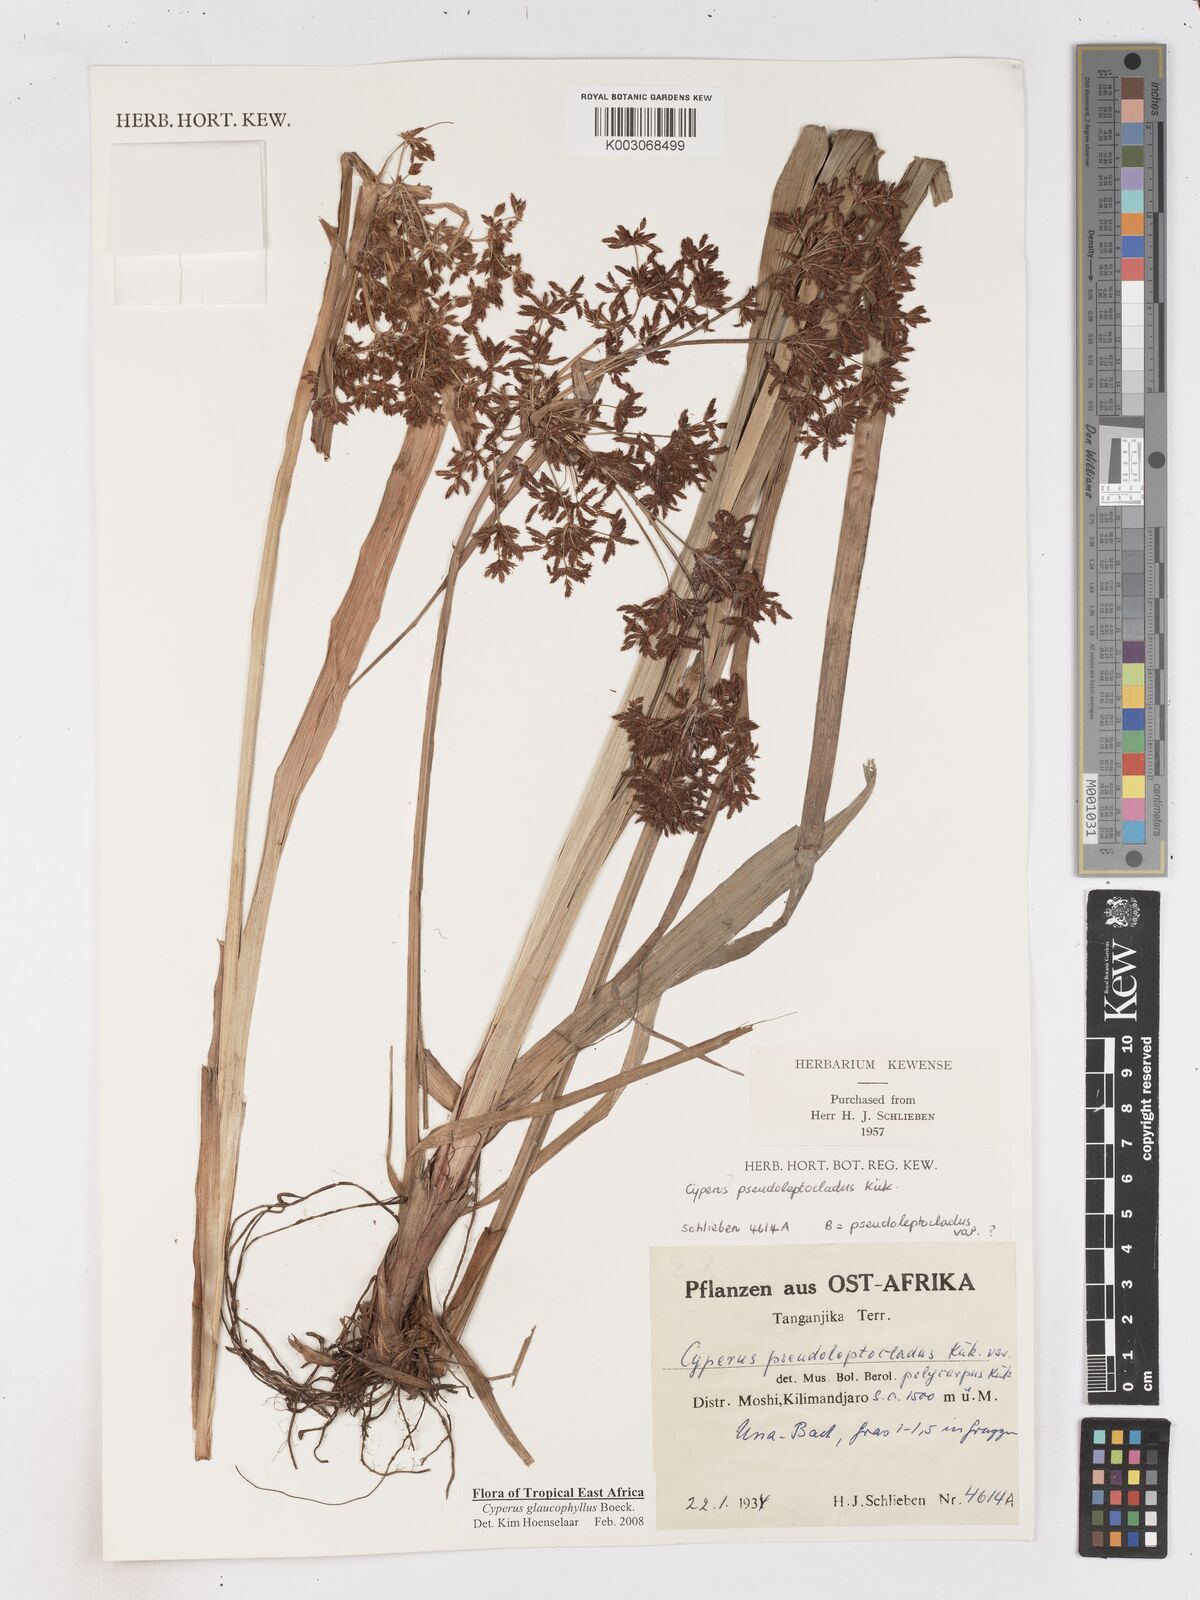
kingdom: Plantae
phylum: Tracheophyta
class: Liliopsida
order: Poales
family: Cyperaceae
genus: Cyperus
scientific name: Cyperus glaucophyllus
